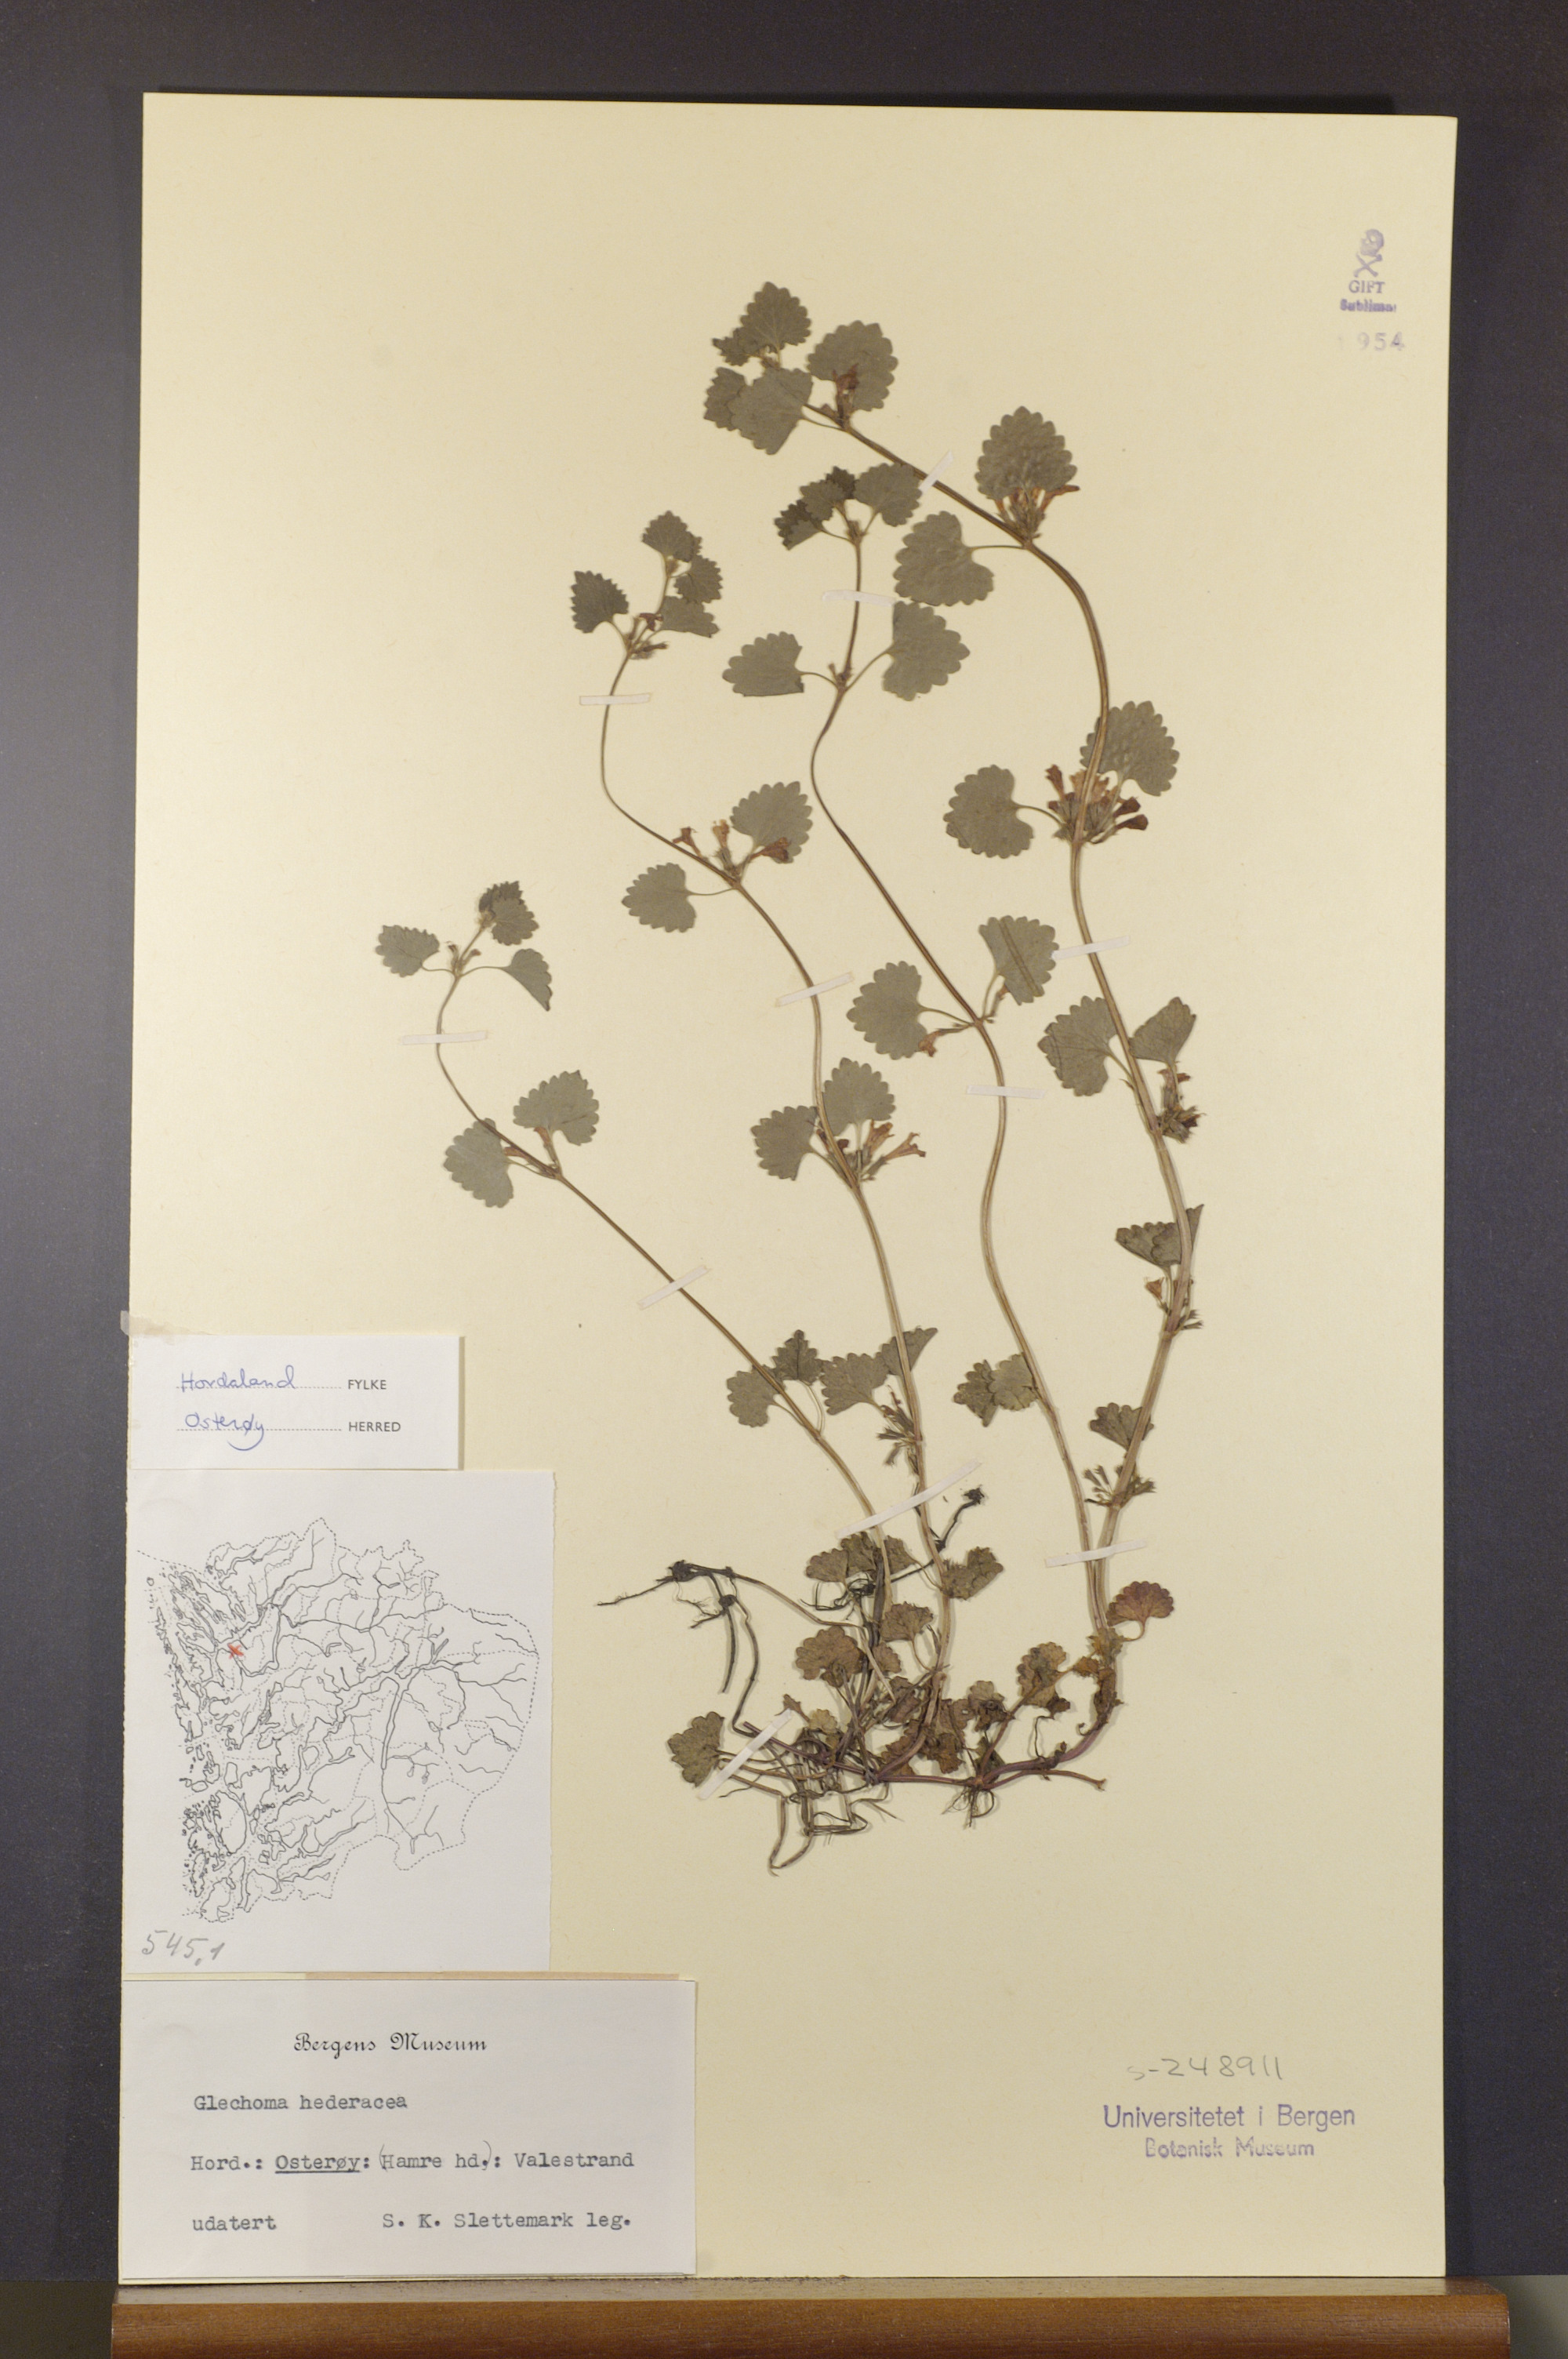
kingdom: Plantae
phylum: Tracheophyta
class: Magnoliopsida
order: Lamiales
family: Lamiaceae
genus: Glechoma
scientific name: Glechoma hederacea
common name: Ground ivy
